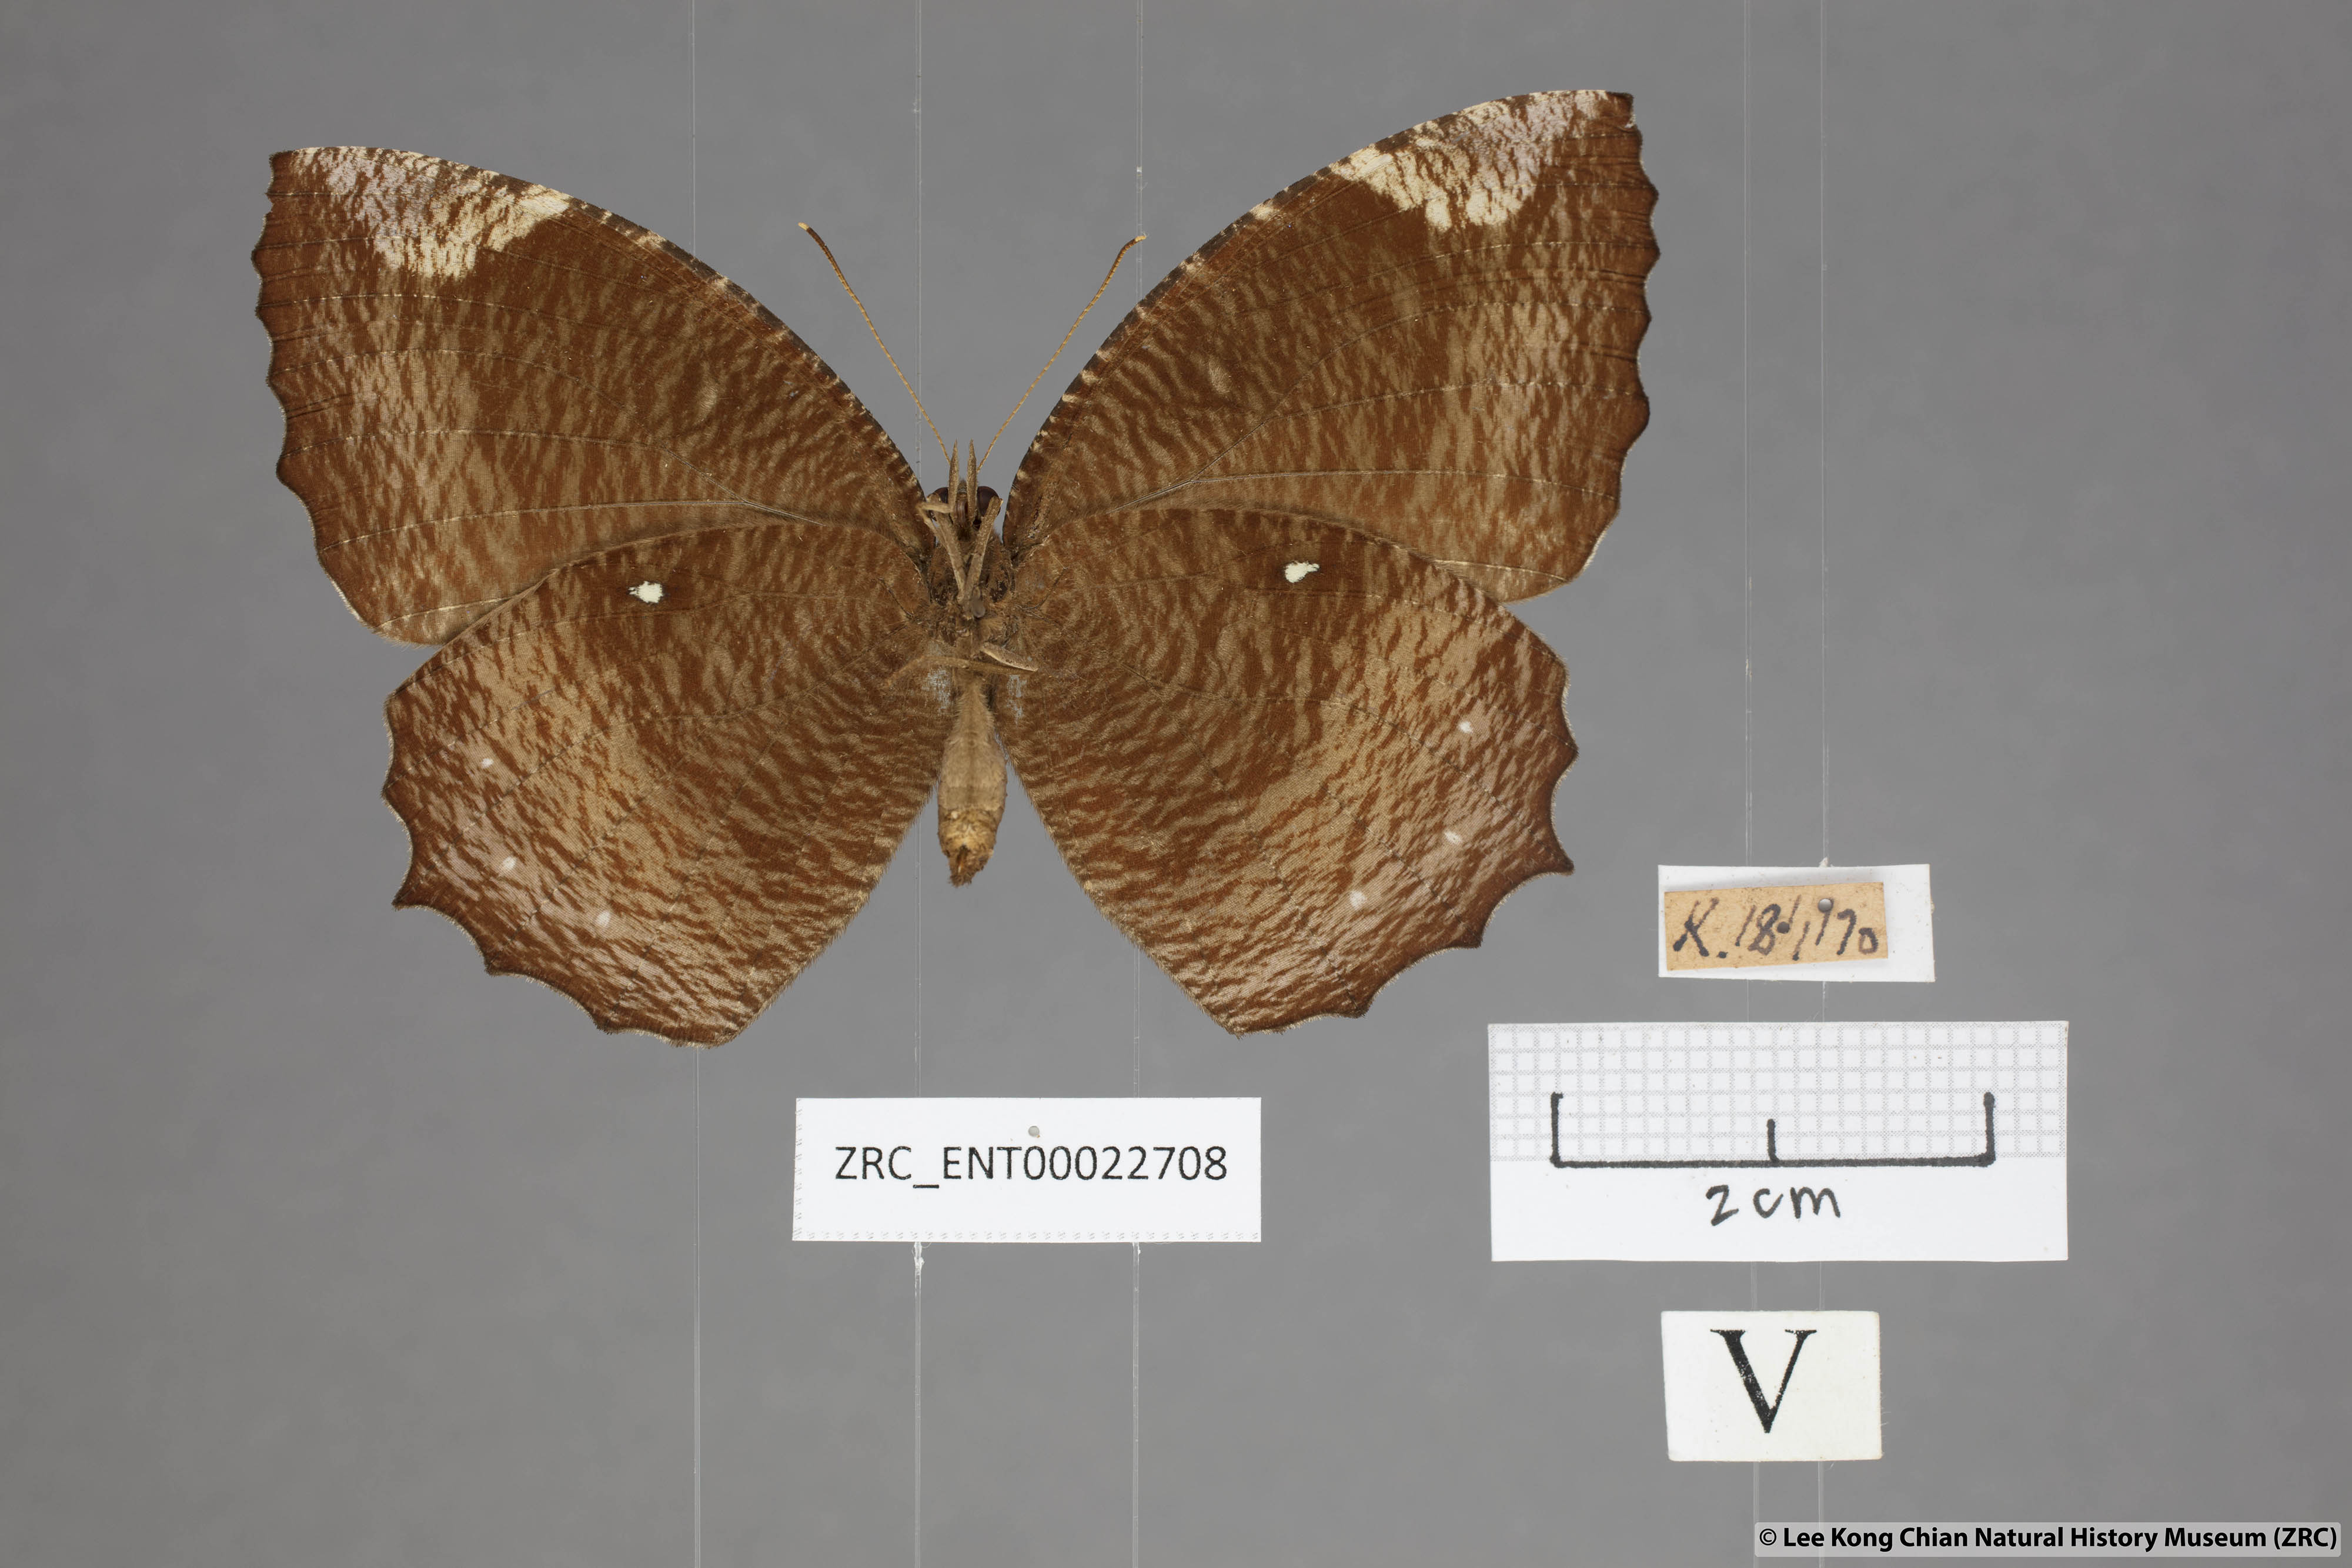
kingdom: Animalia
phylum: Arthropoda
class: Insecta
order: Lepidoptera
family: Nymphalidae
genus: Elymnias
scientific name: Elymnias hypermnestra
